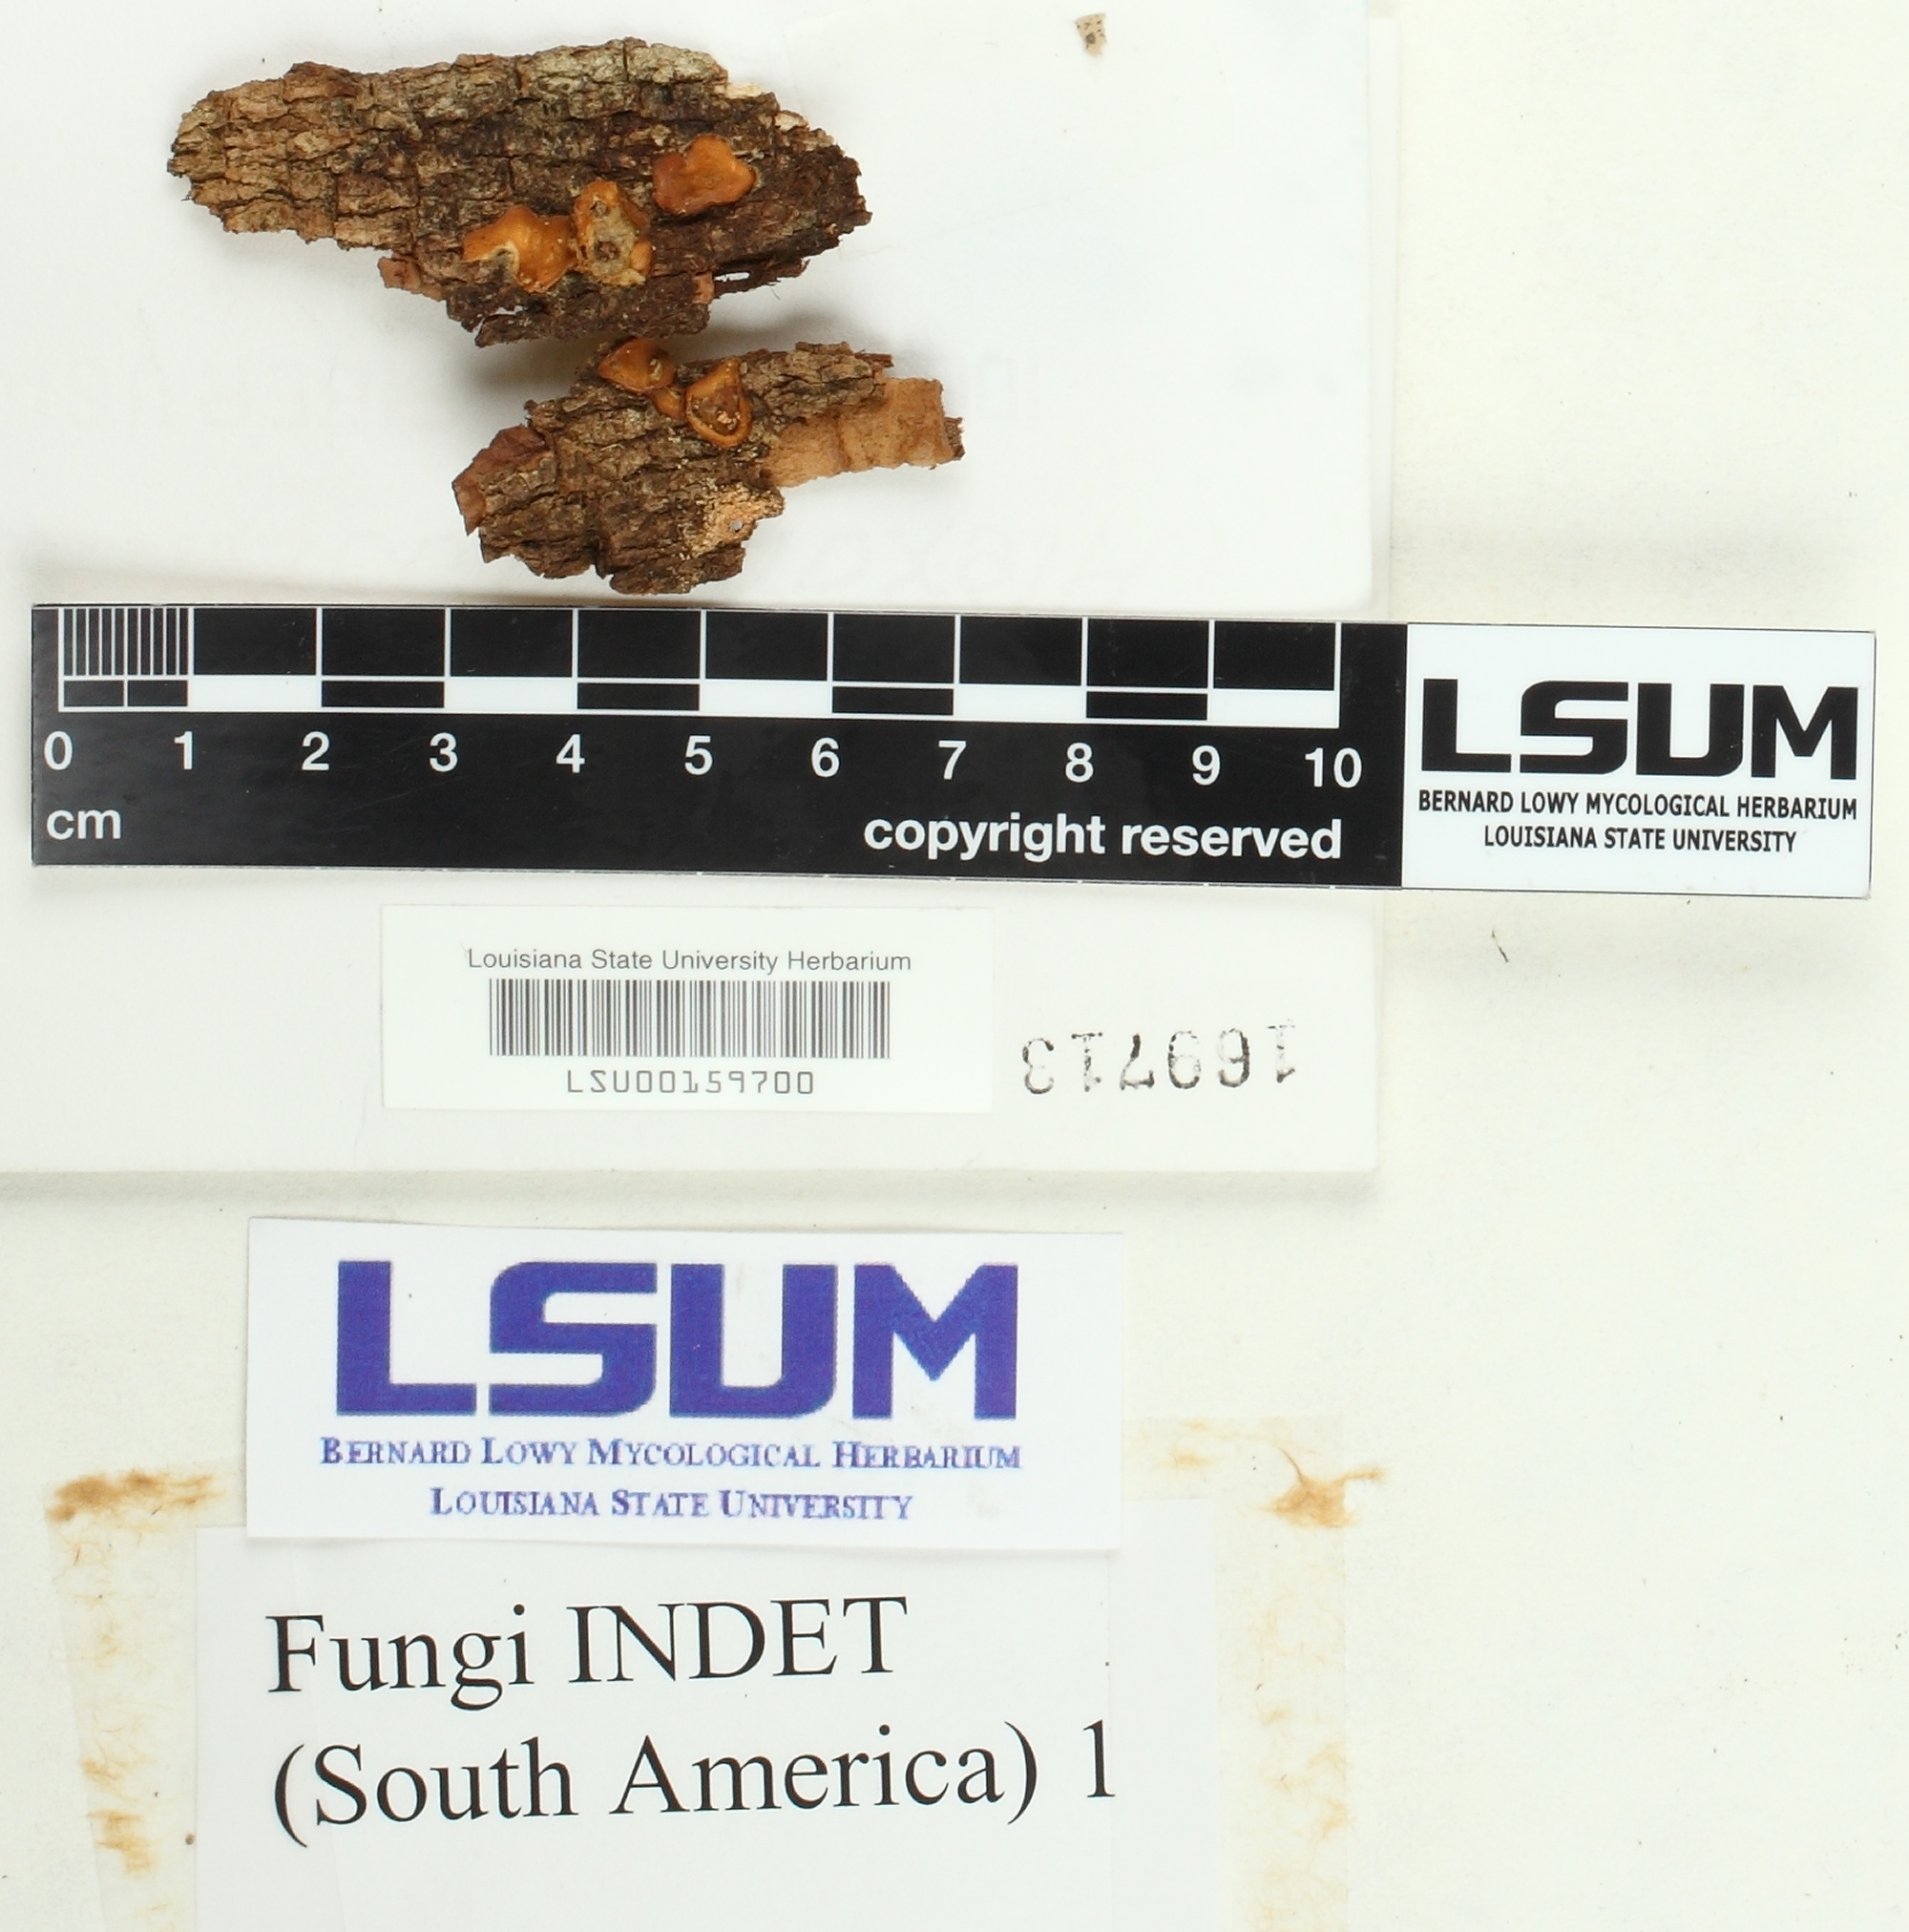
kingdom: Fungi
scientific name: Fungi
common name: Fungi
